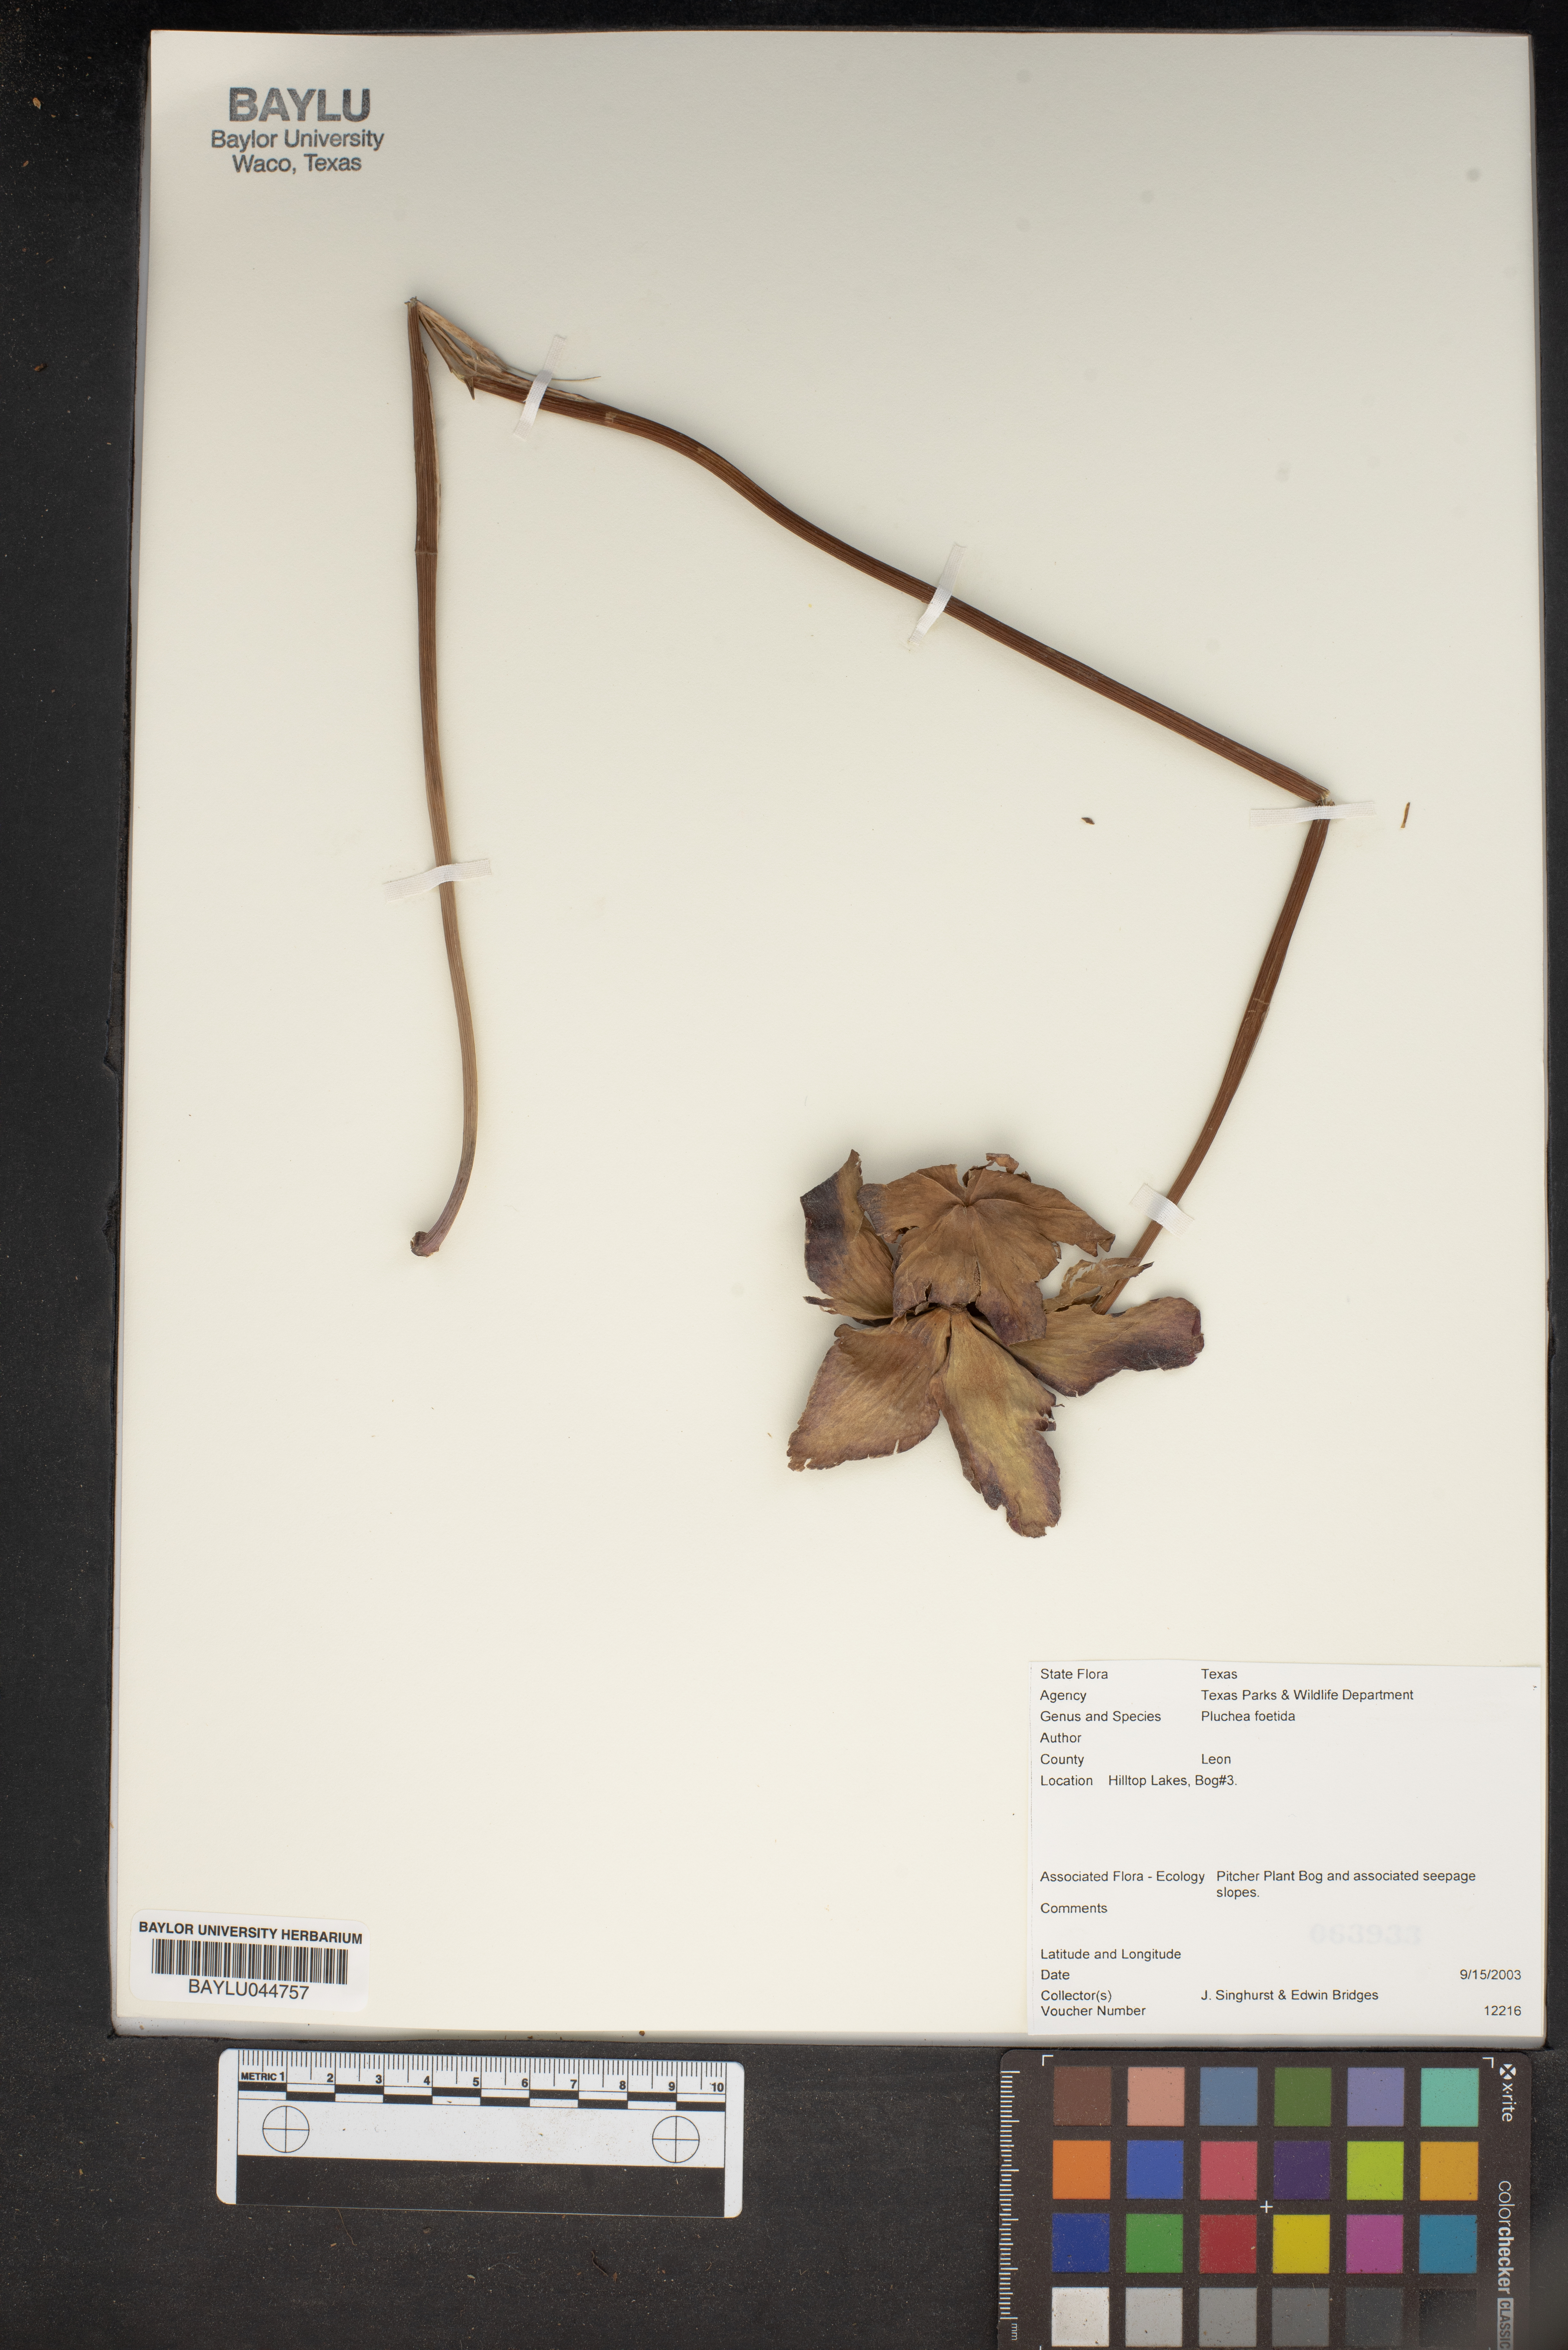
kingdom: Plantae
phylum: Tracheophyta
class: Magnoliopsida
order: Asterales
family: Asteraceae
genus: Pluchea
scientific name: Pluchea foetida
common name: Stinking camphorweed
